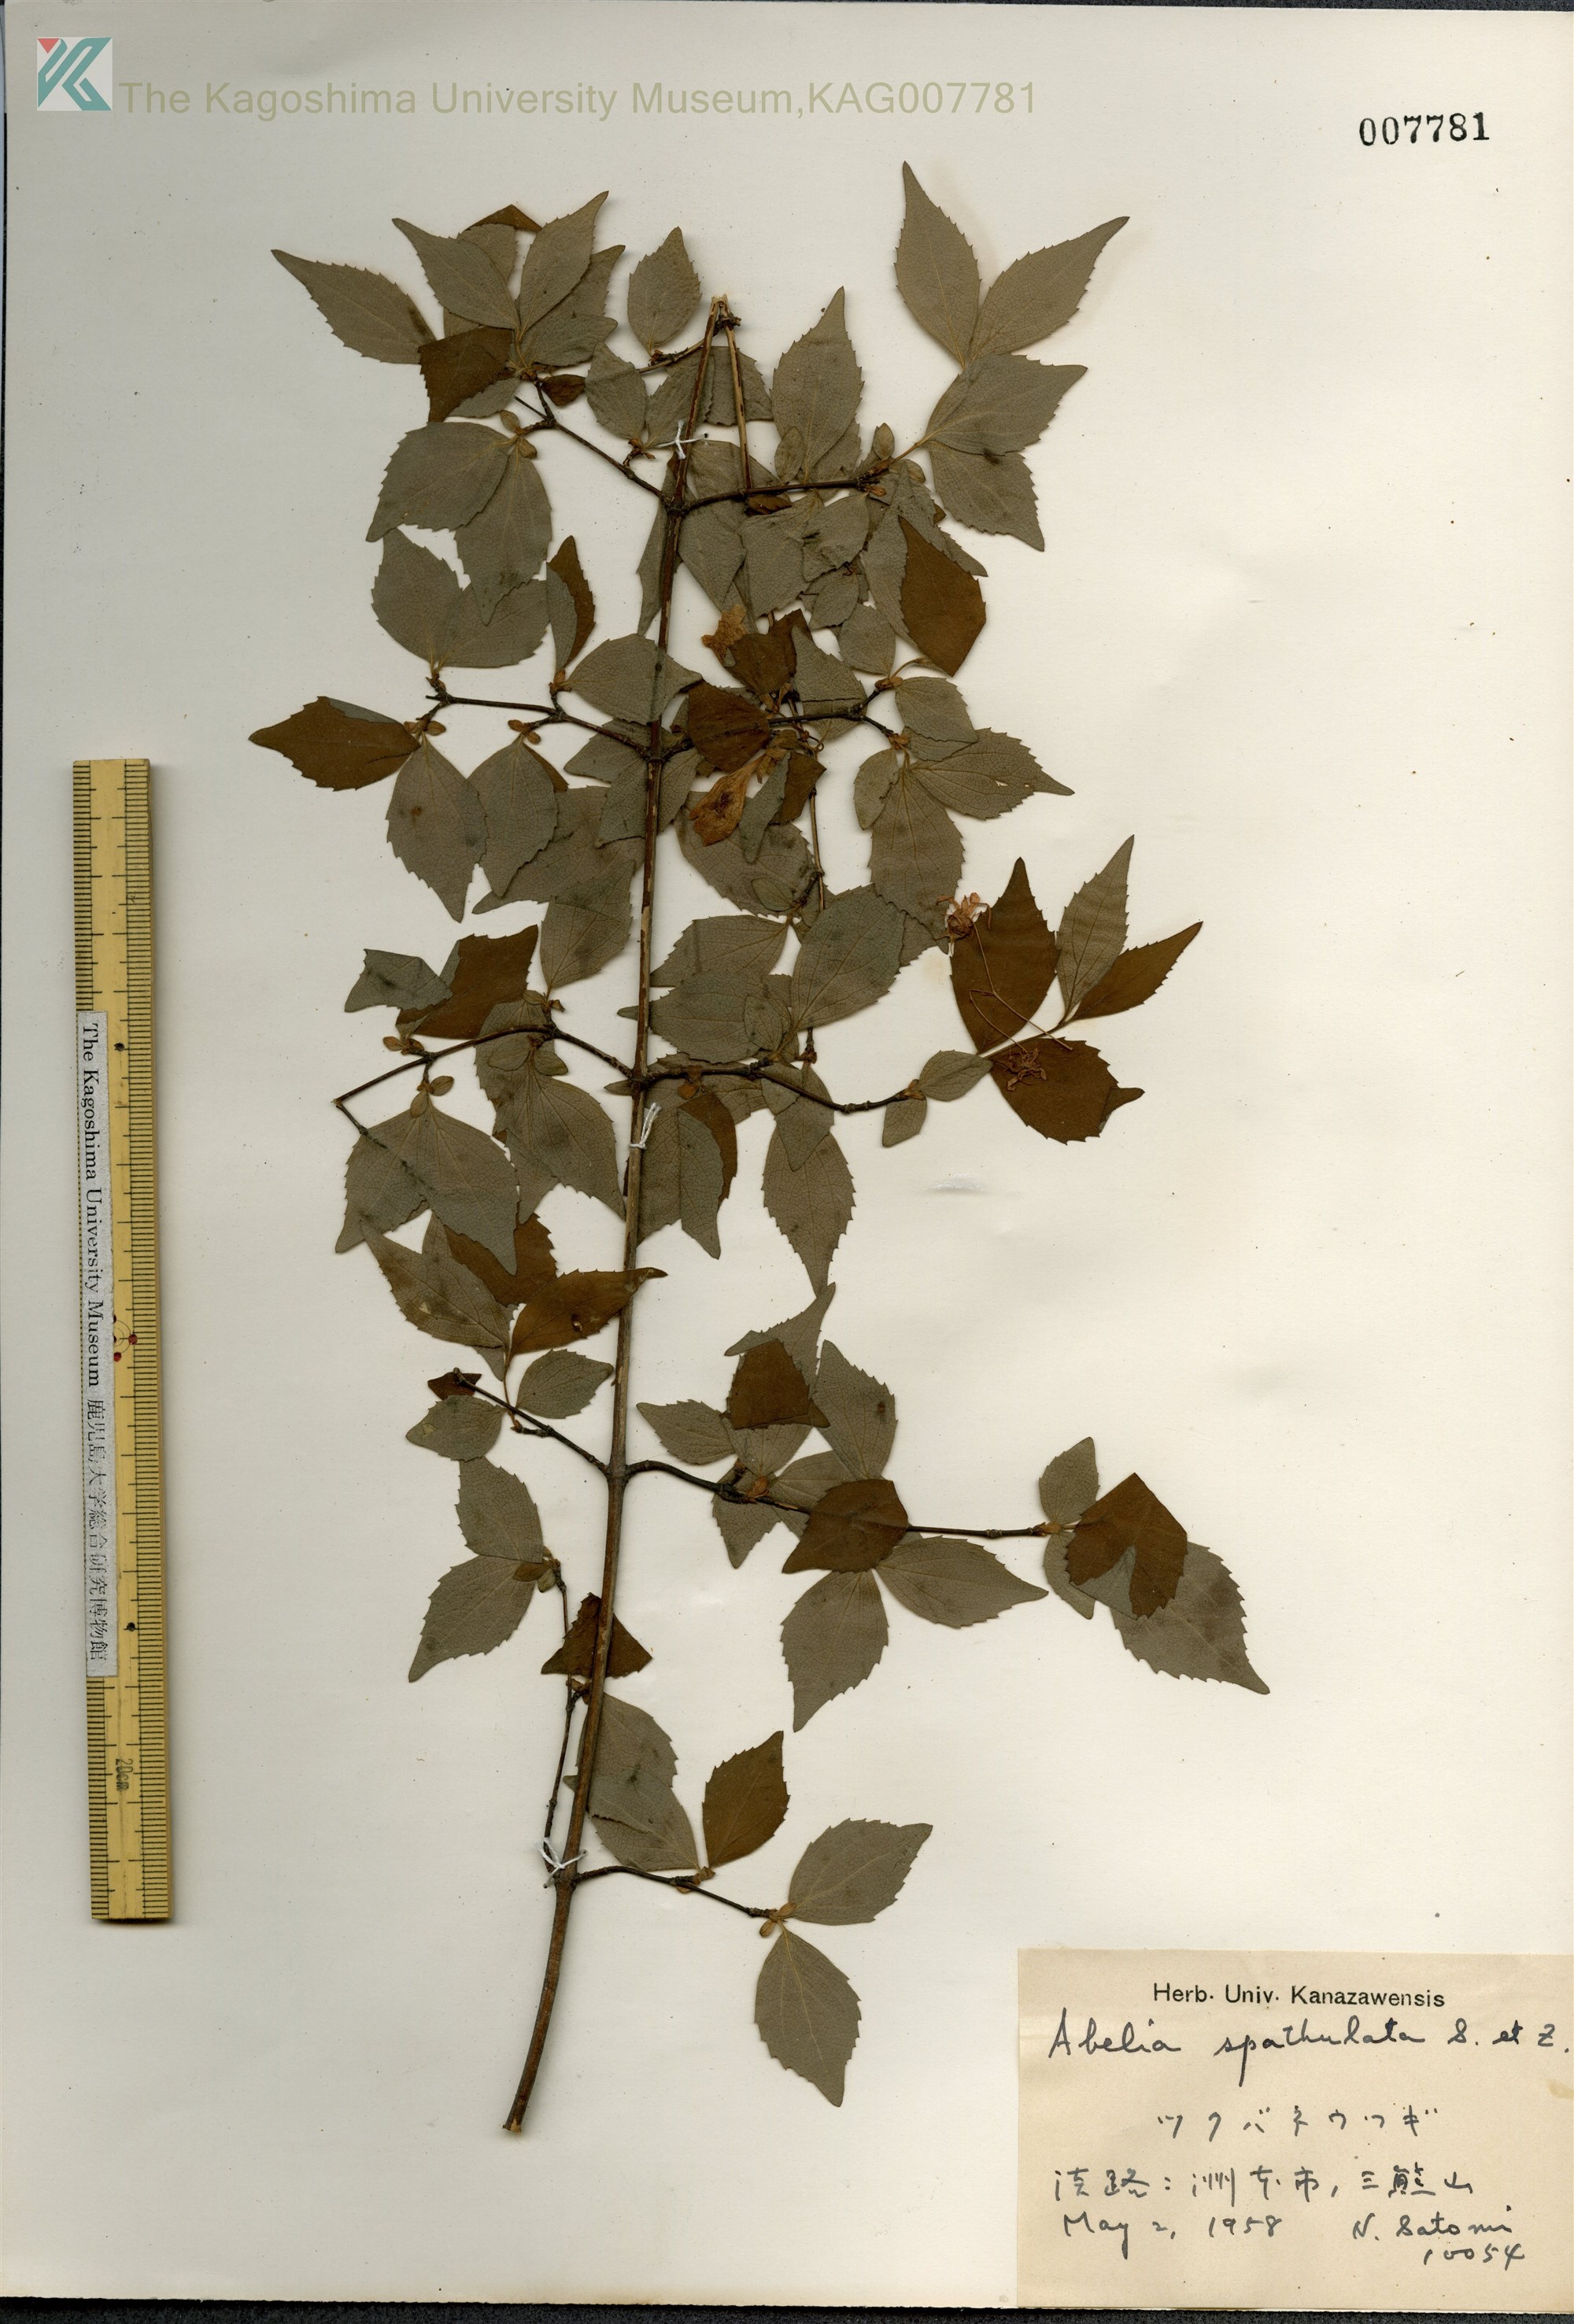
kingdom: Plantae
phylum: Tracheophyta
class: Magnoliopsida
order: Dipsacales
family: Caprifoliaceae
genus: Diabelia
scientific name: Diabelia spathulata
